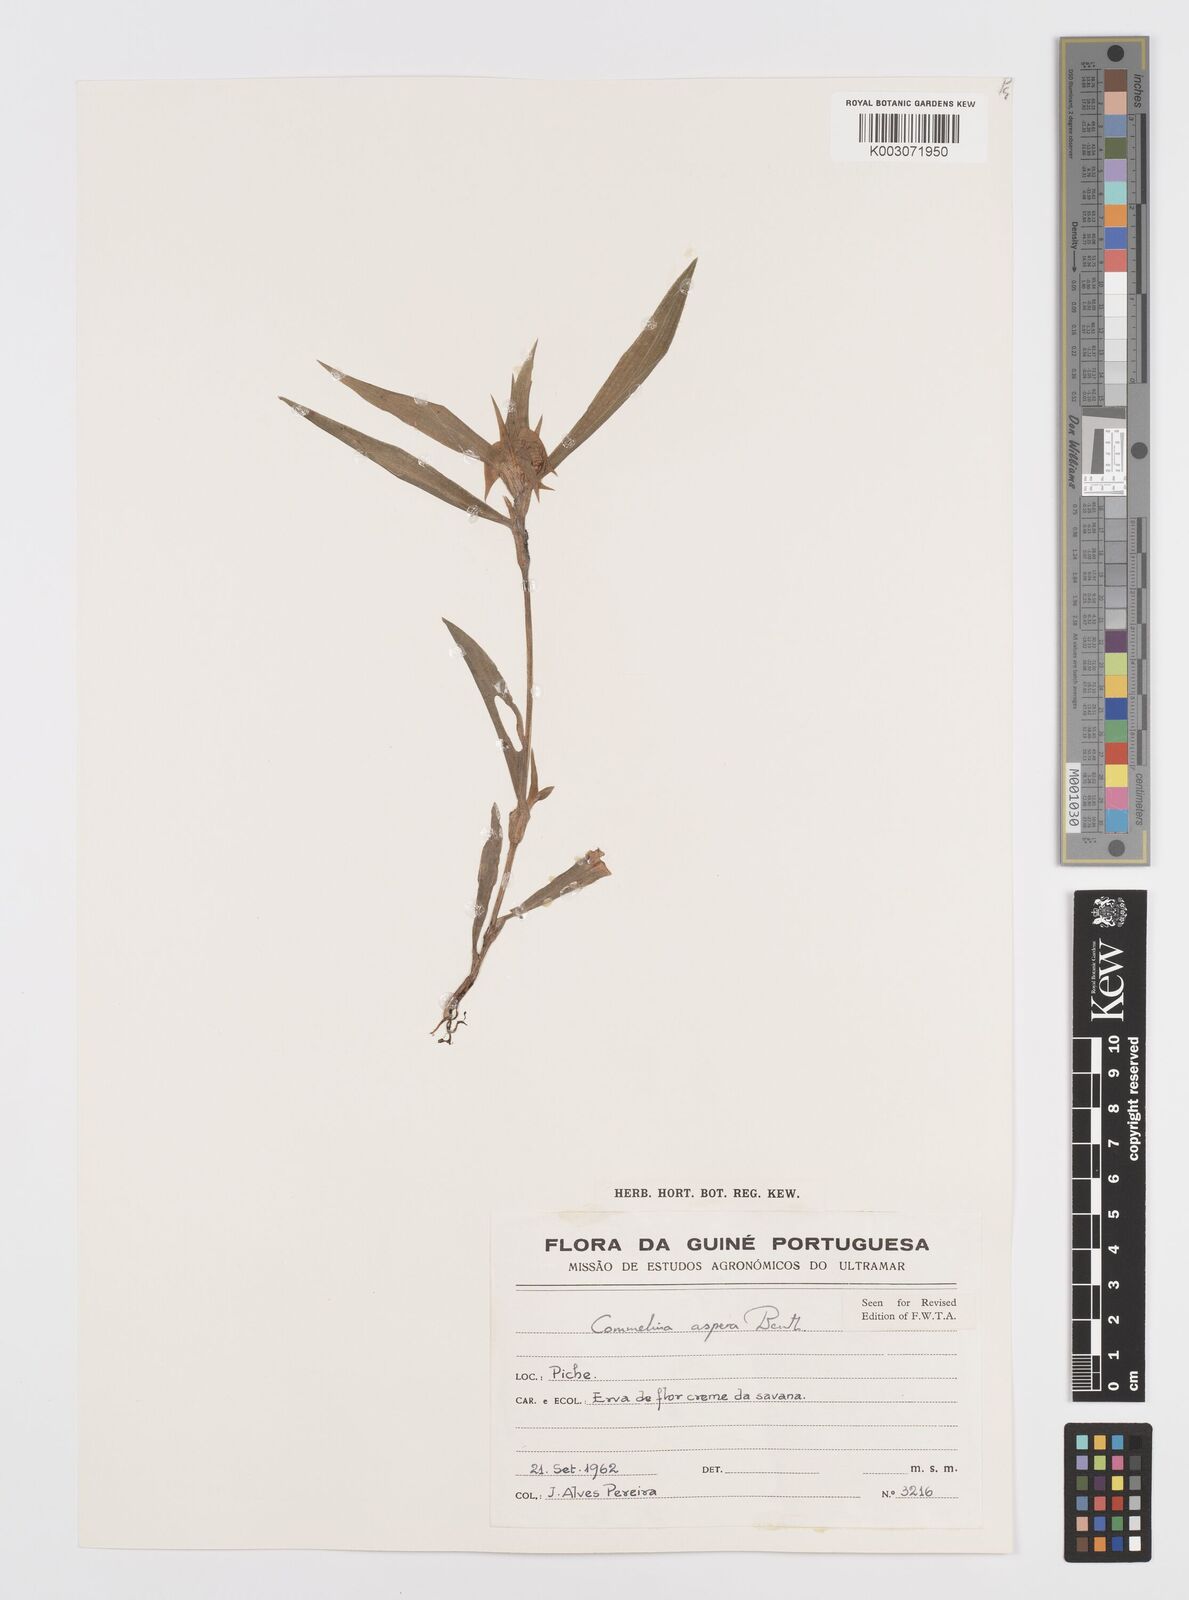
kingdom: Plantae
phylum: Tracheophyta
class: Liliopsida
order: Commelinales
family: Commelinaceae
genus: Commelina
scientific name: Commelina aspera
